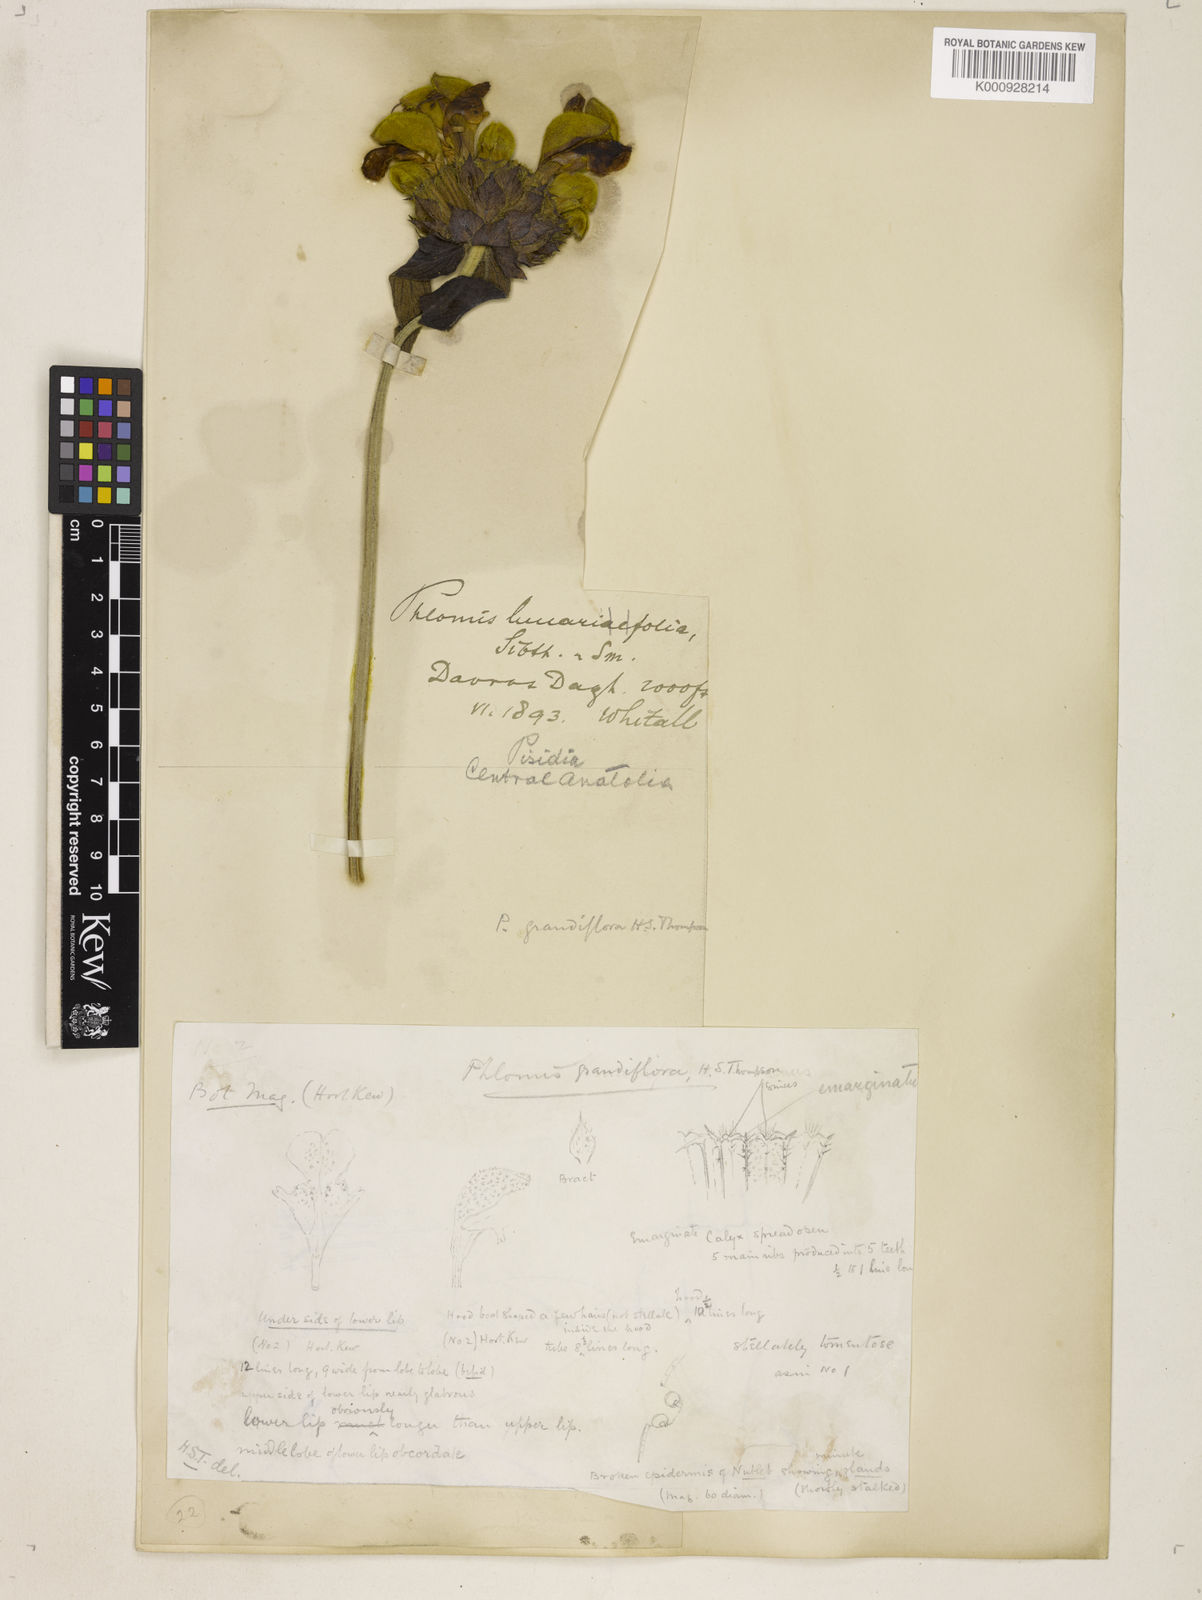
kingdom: Plantae
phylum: Tracheophyta
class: Magnoliopsida
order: Lamiales
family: Lamiaceae
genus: Phlomis
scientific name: Phlomis grandiflora
